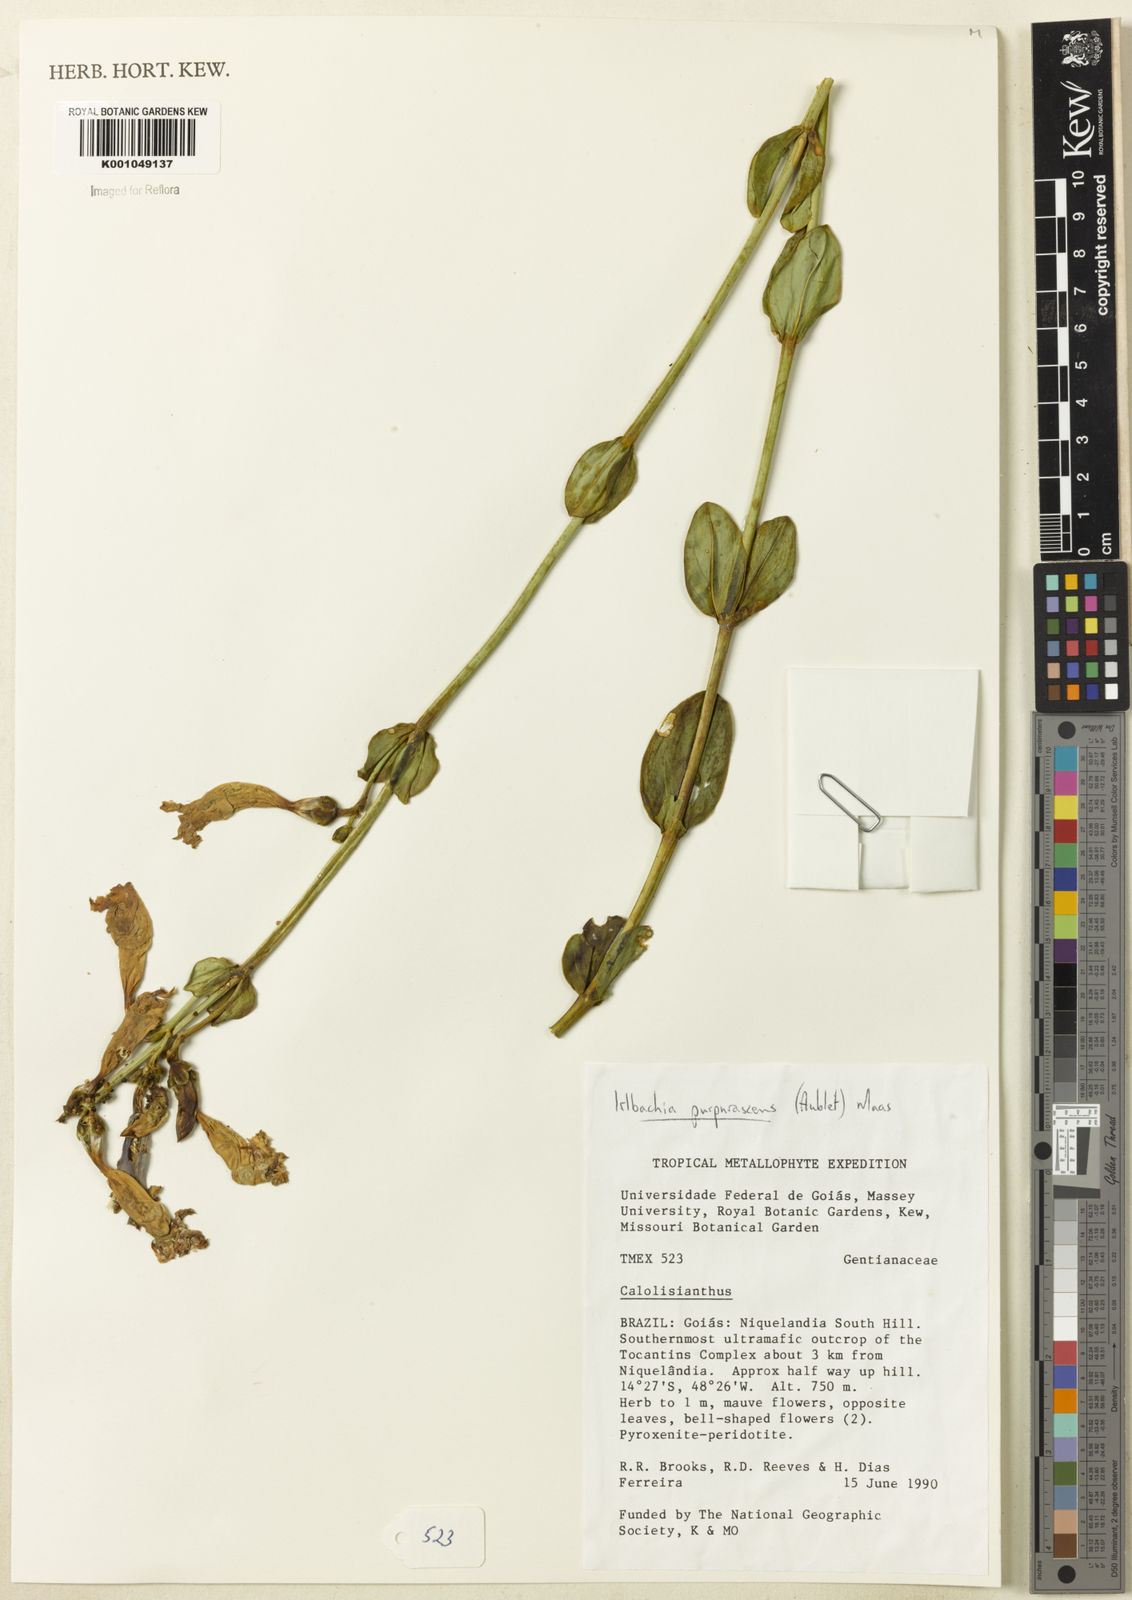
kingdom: Plantae
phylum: Tracheophyta
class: Magnoliopsida
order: Gentianales
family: Gentianaceae
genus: Chelonanthus
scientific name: Chelonanthus purpurascens
